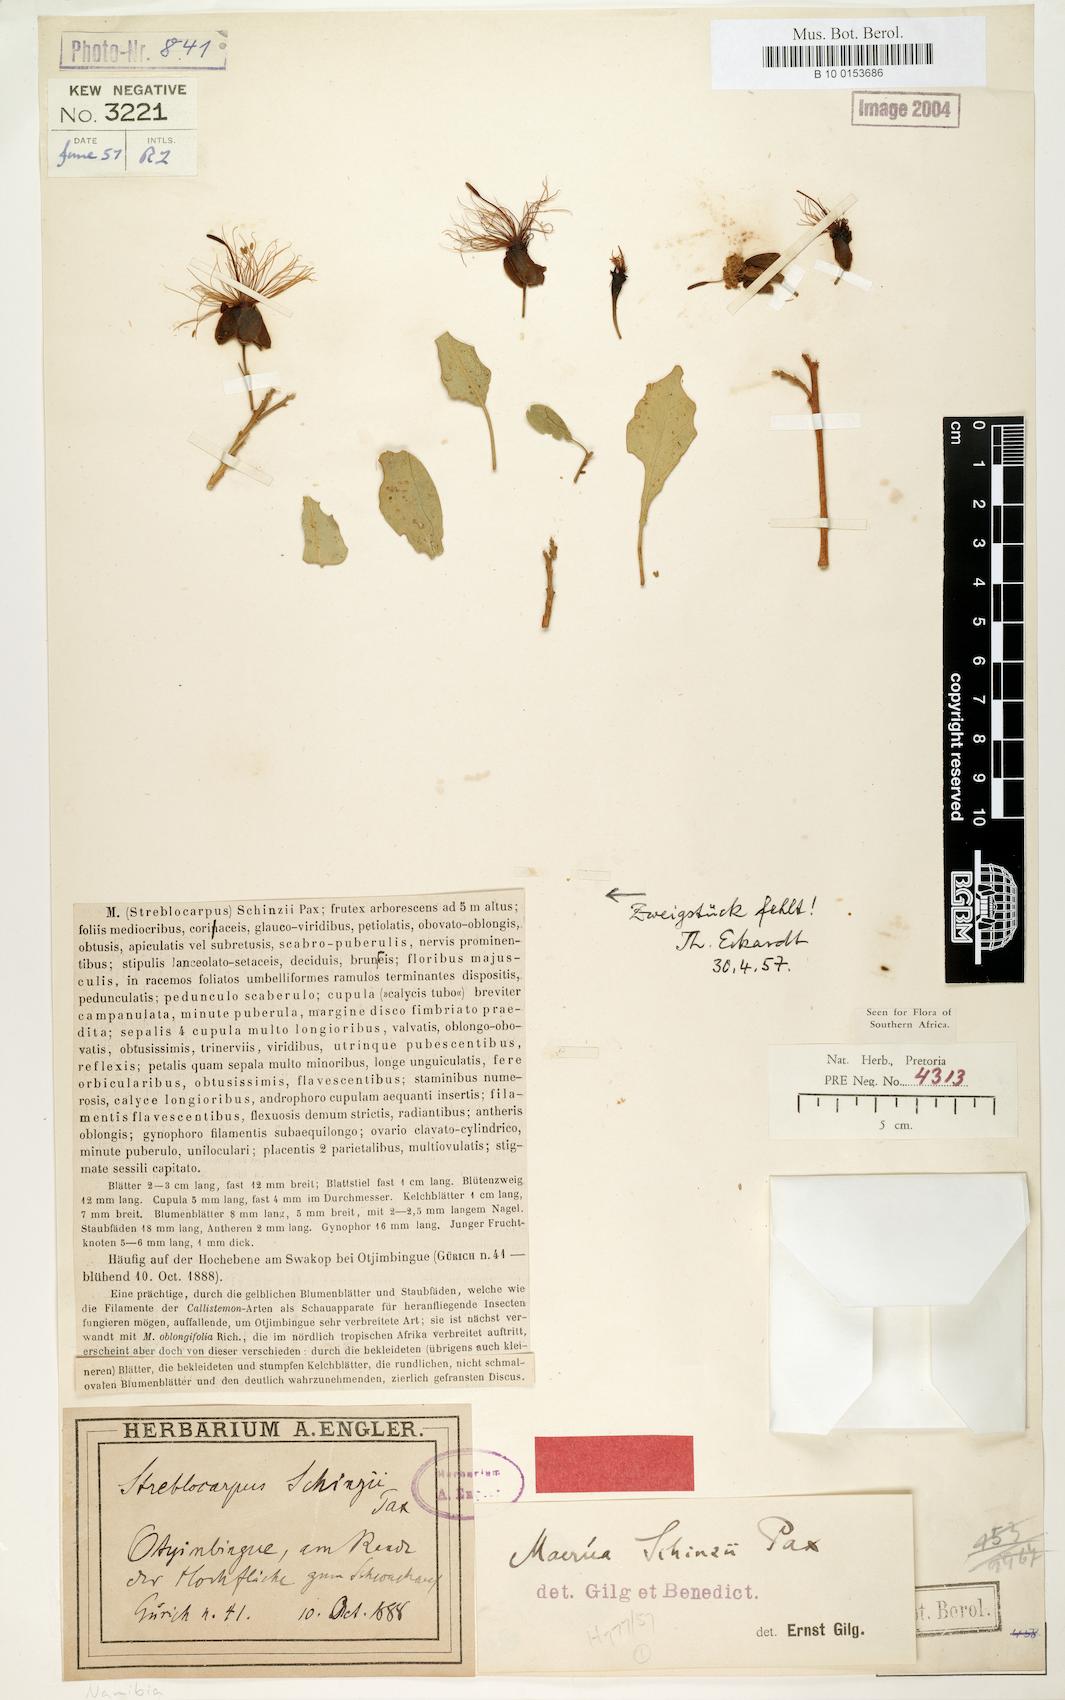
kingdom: Plantae
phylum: Tracheophyta
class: Magnoliopsida
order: Brassicales
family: Capparaceae
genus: Maerua
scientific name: Maerua schinzii
